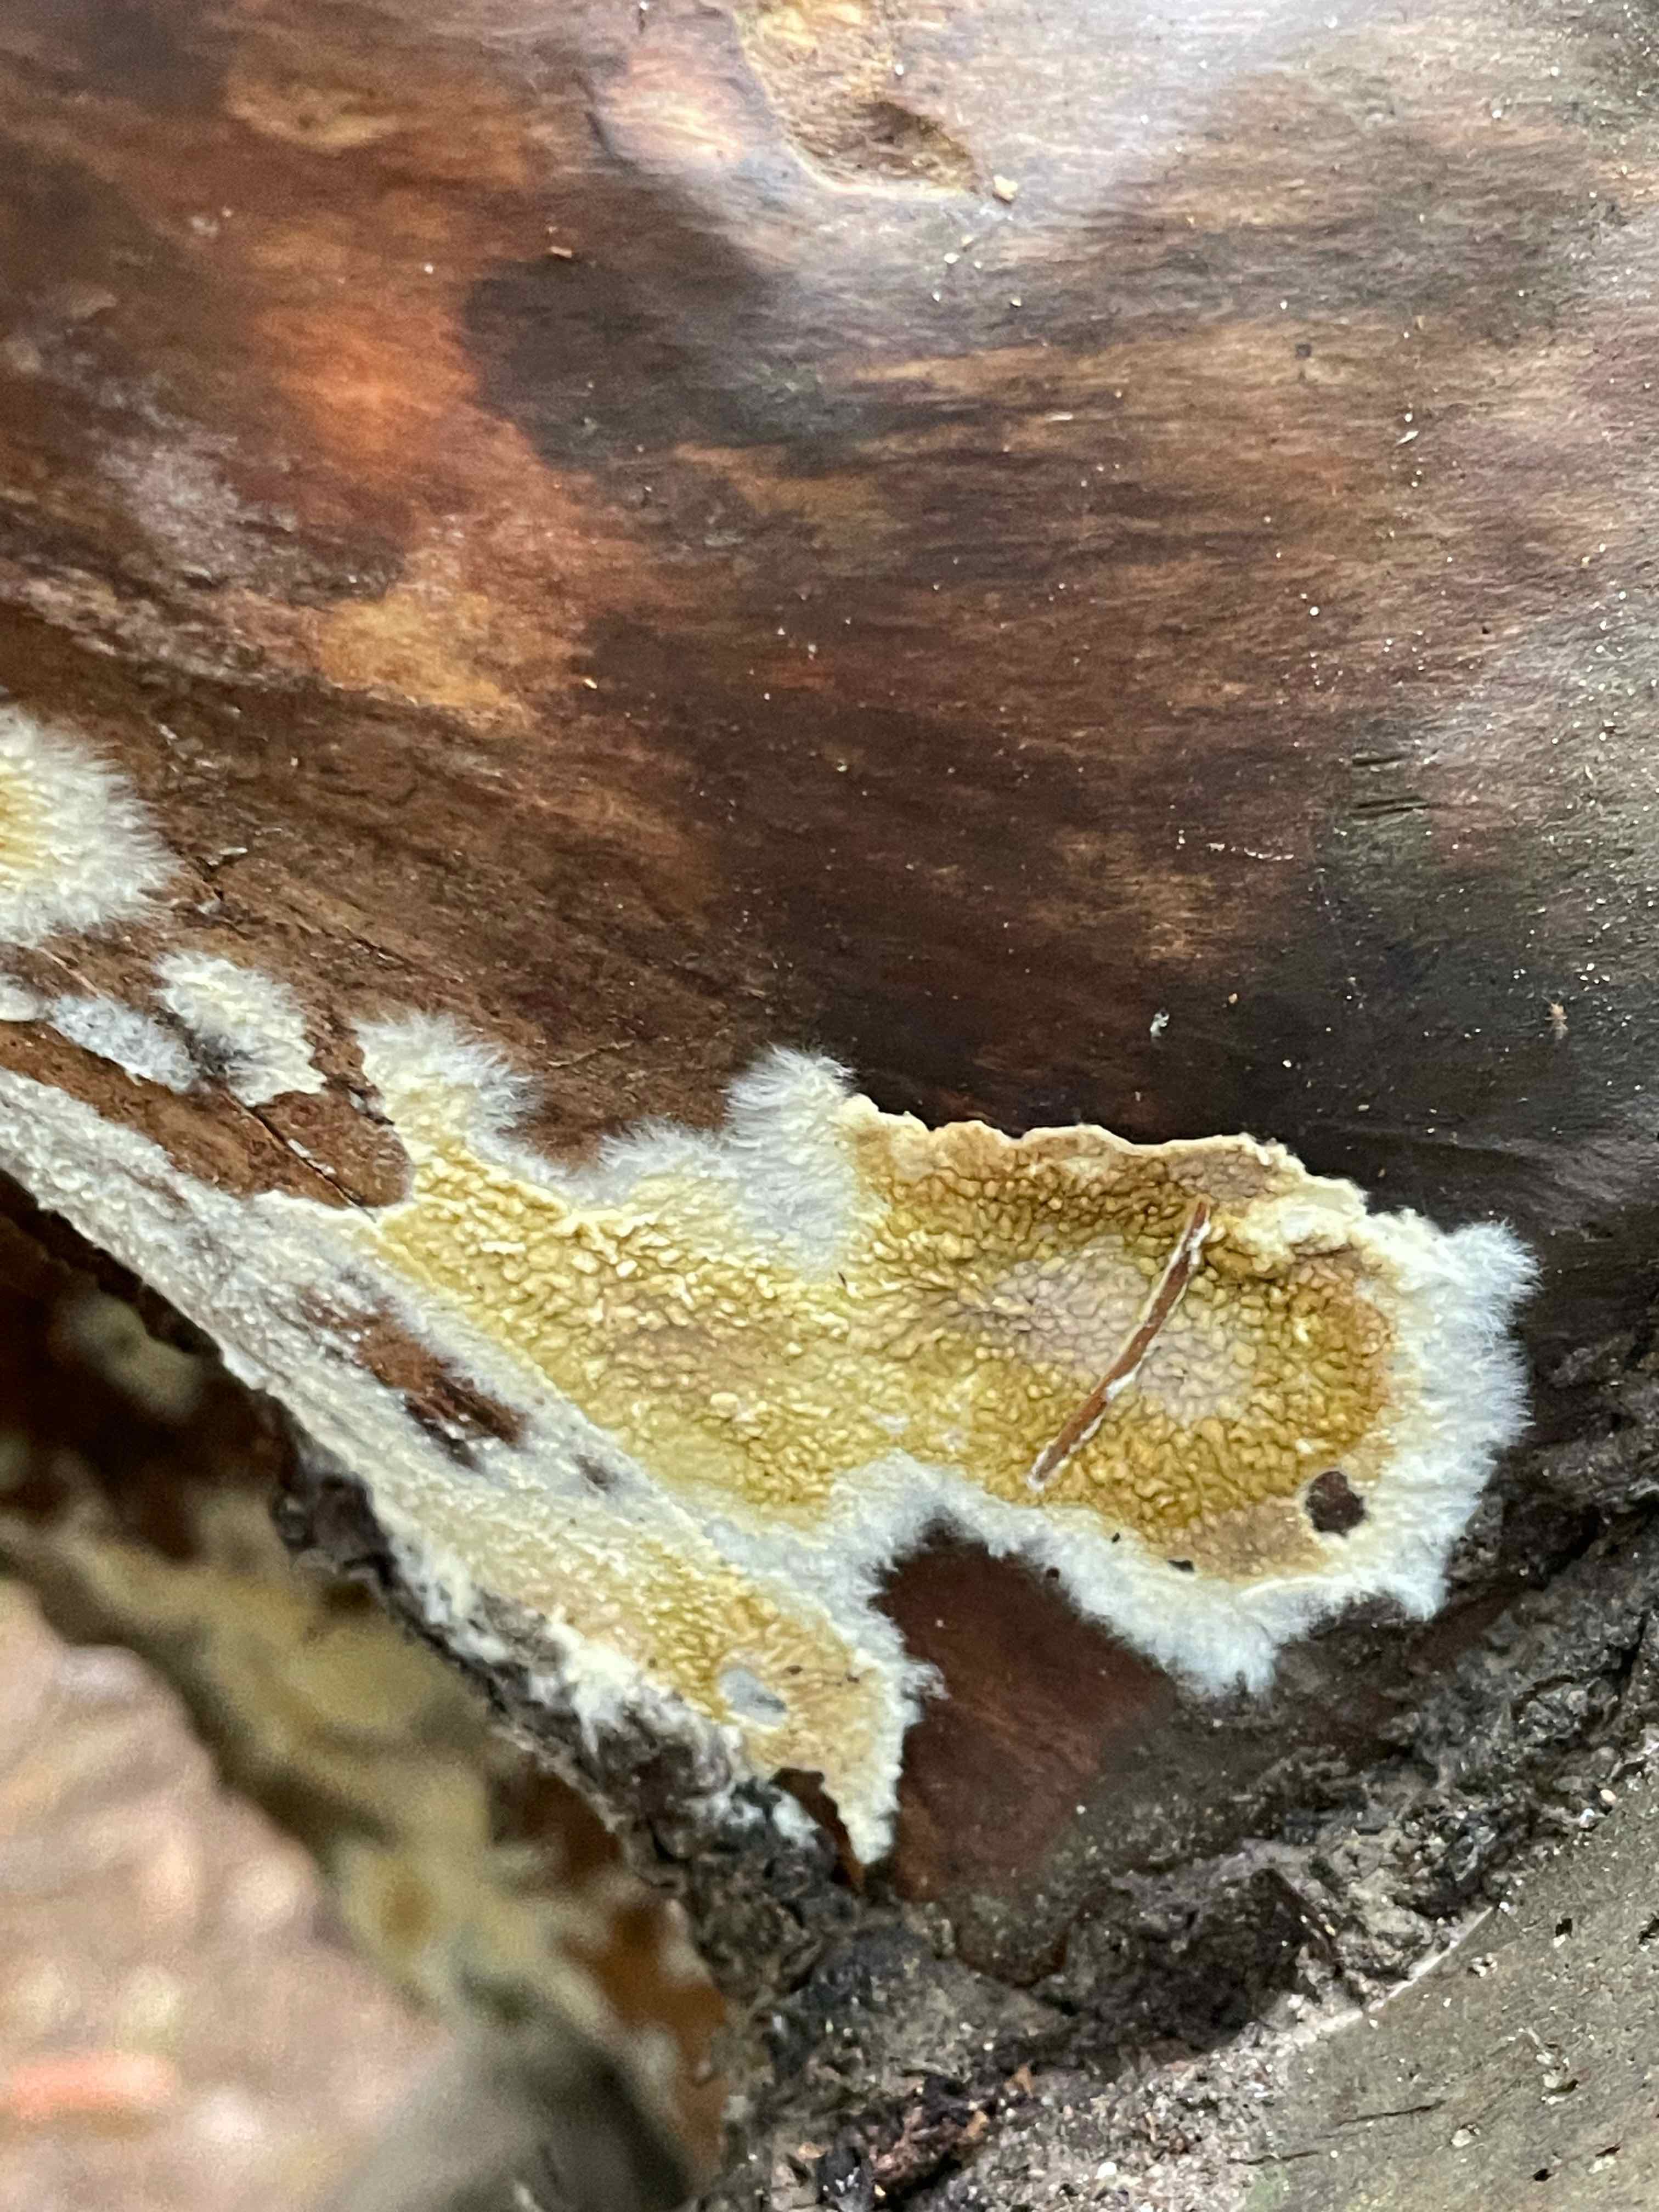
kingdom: Fungi
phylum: Basidiomycota
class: Agaricomycetes
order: Boletales
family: Coniophoraceae
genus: Coniophora
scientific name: Coniophora puteana
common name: gul tømmersvamp
